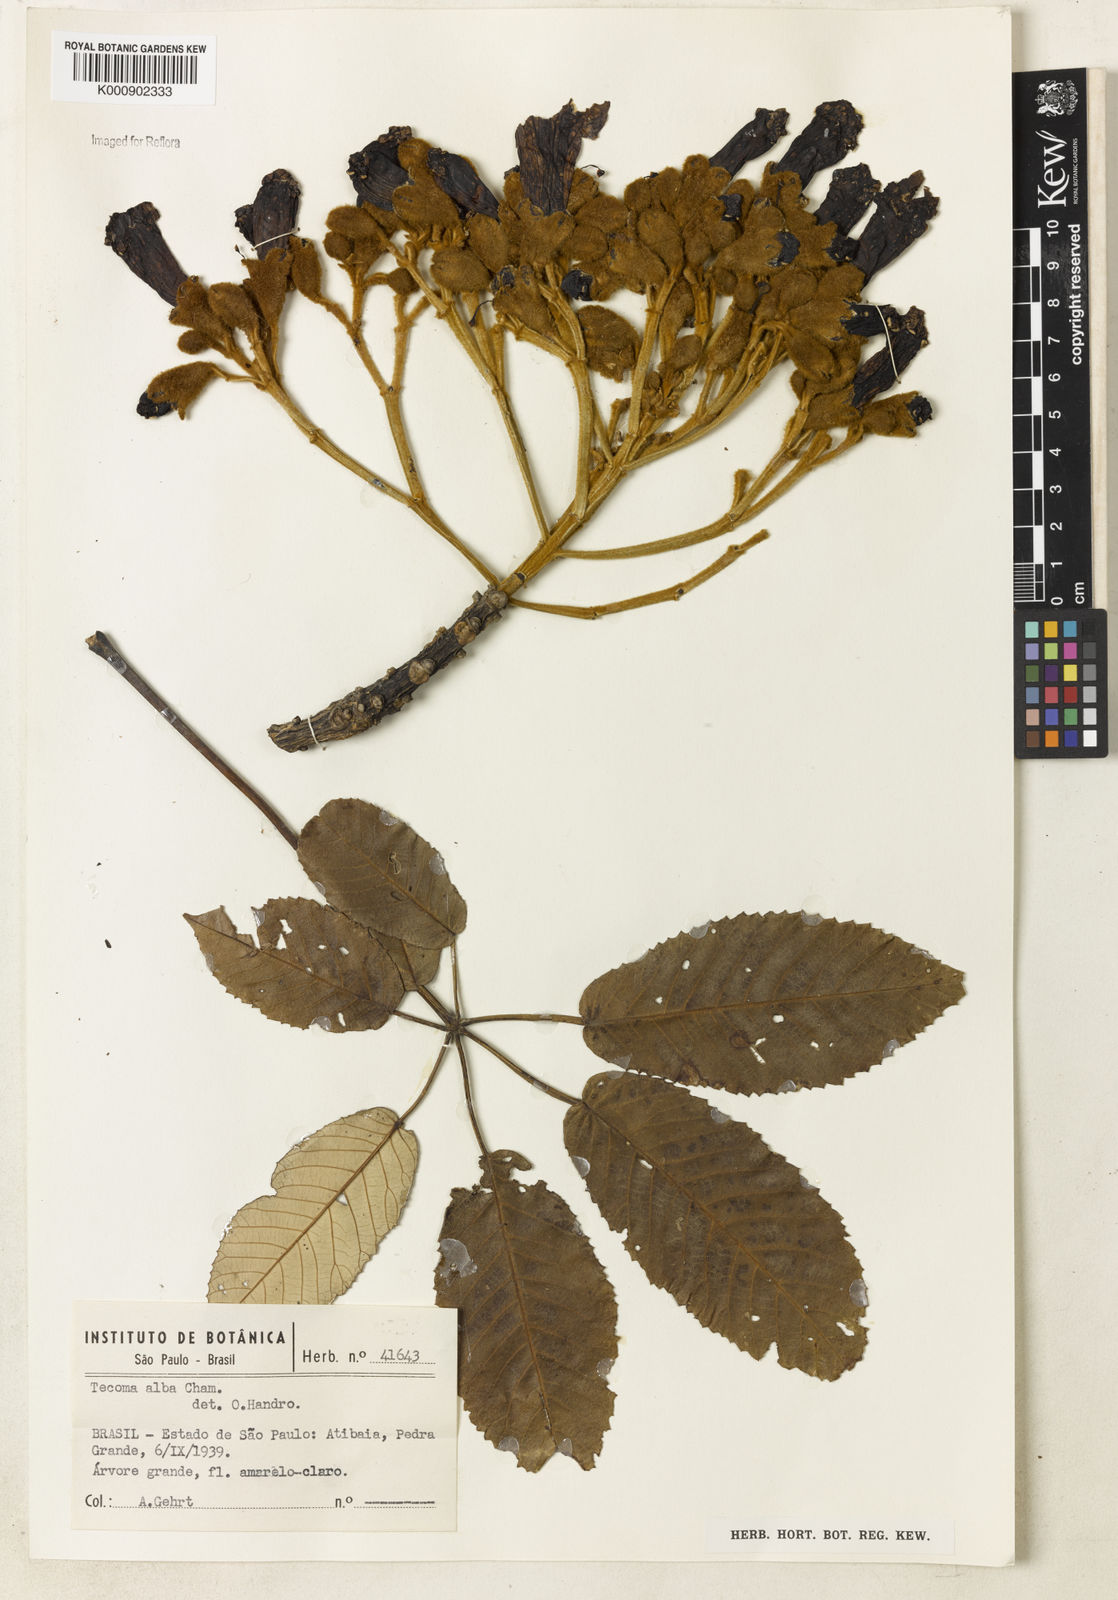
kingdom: Plantae
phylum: Tracheophyta
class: Magnoliopsida
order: Lamiales
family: Bignoniaceae
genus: Handroanthus
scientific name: Handroanthus albus
